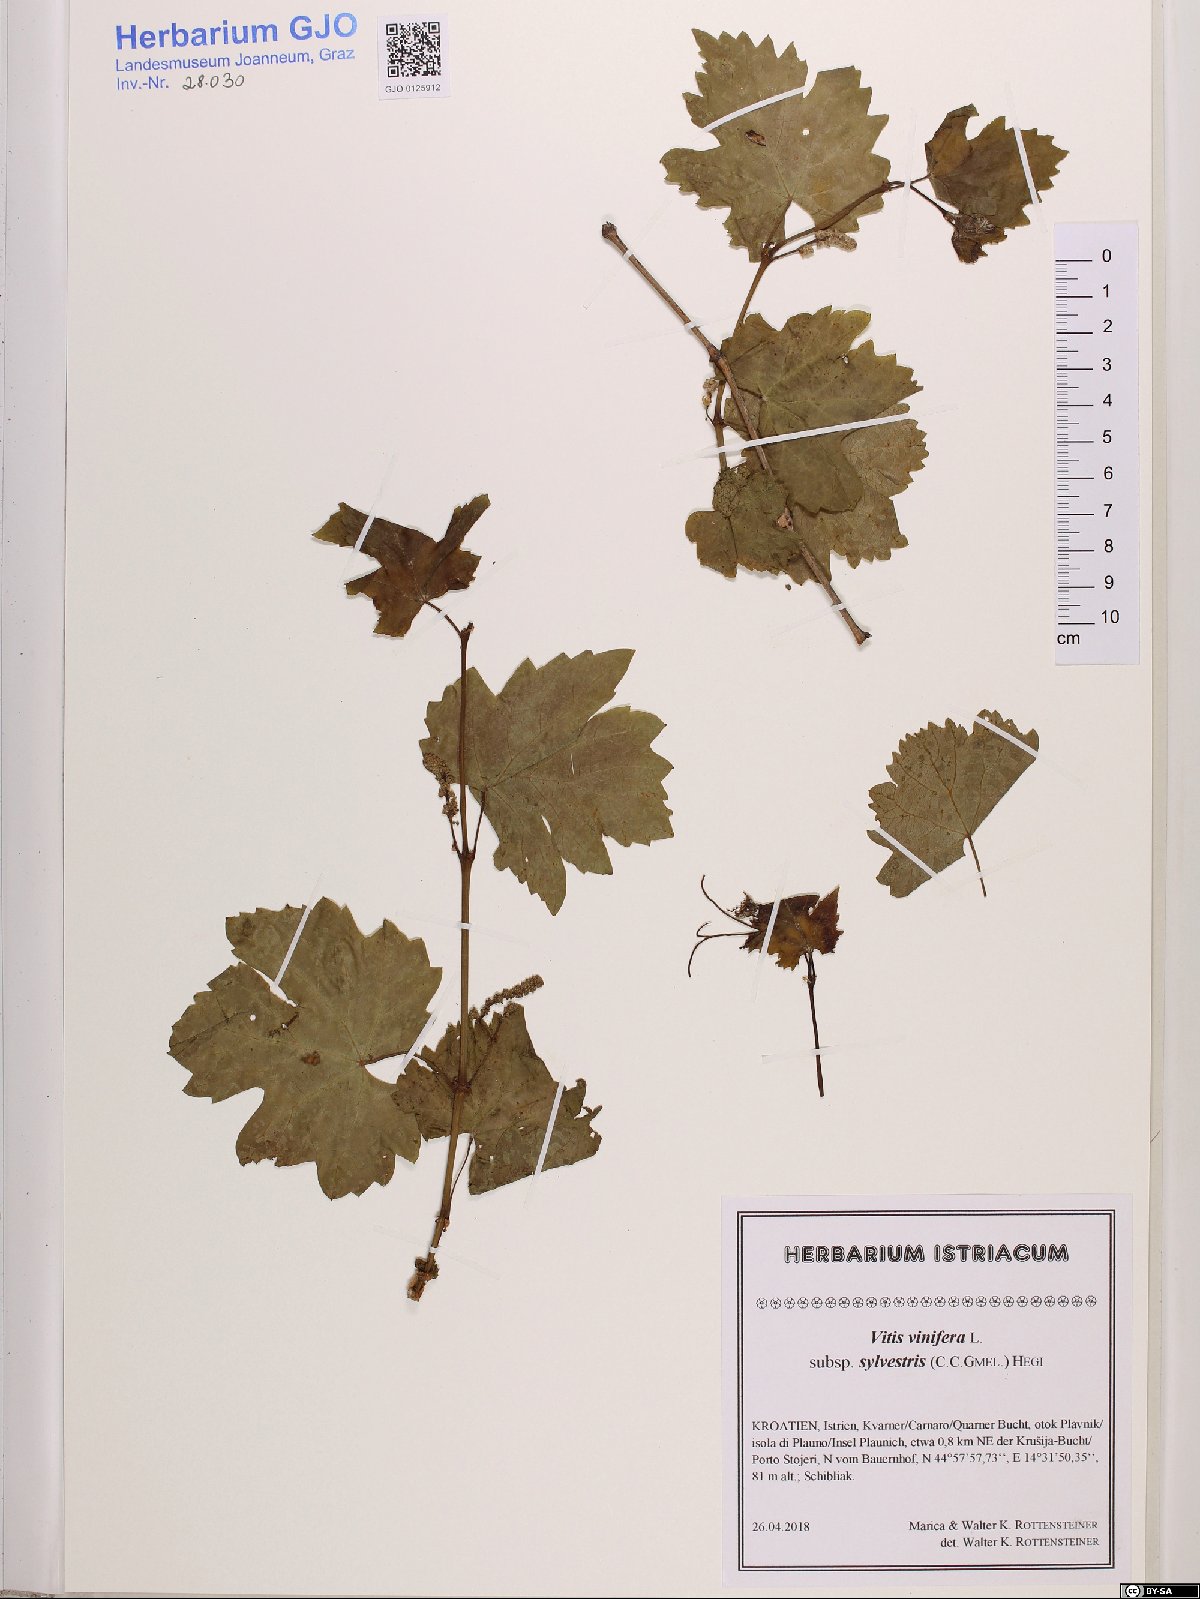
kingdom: Plantae
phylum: Tracheophyta
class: Magnoliopsida
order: Vitales
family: Vitaceae
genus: Vitis
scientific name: Vitis gmelinii
